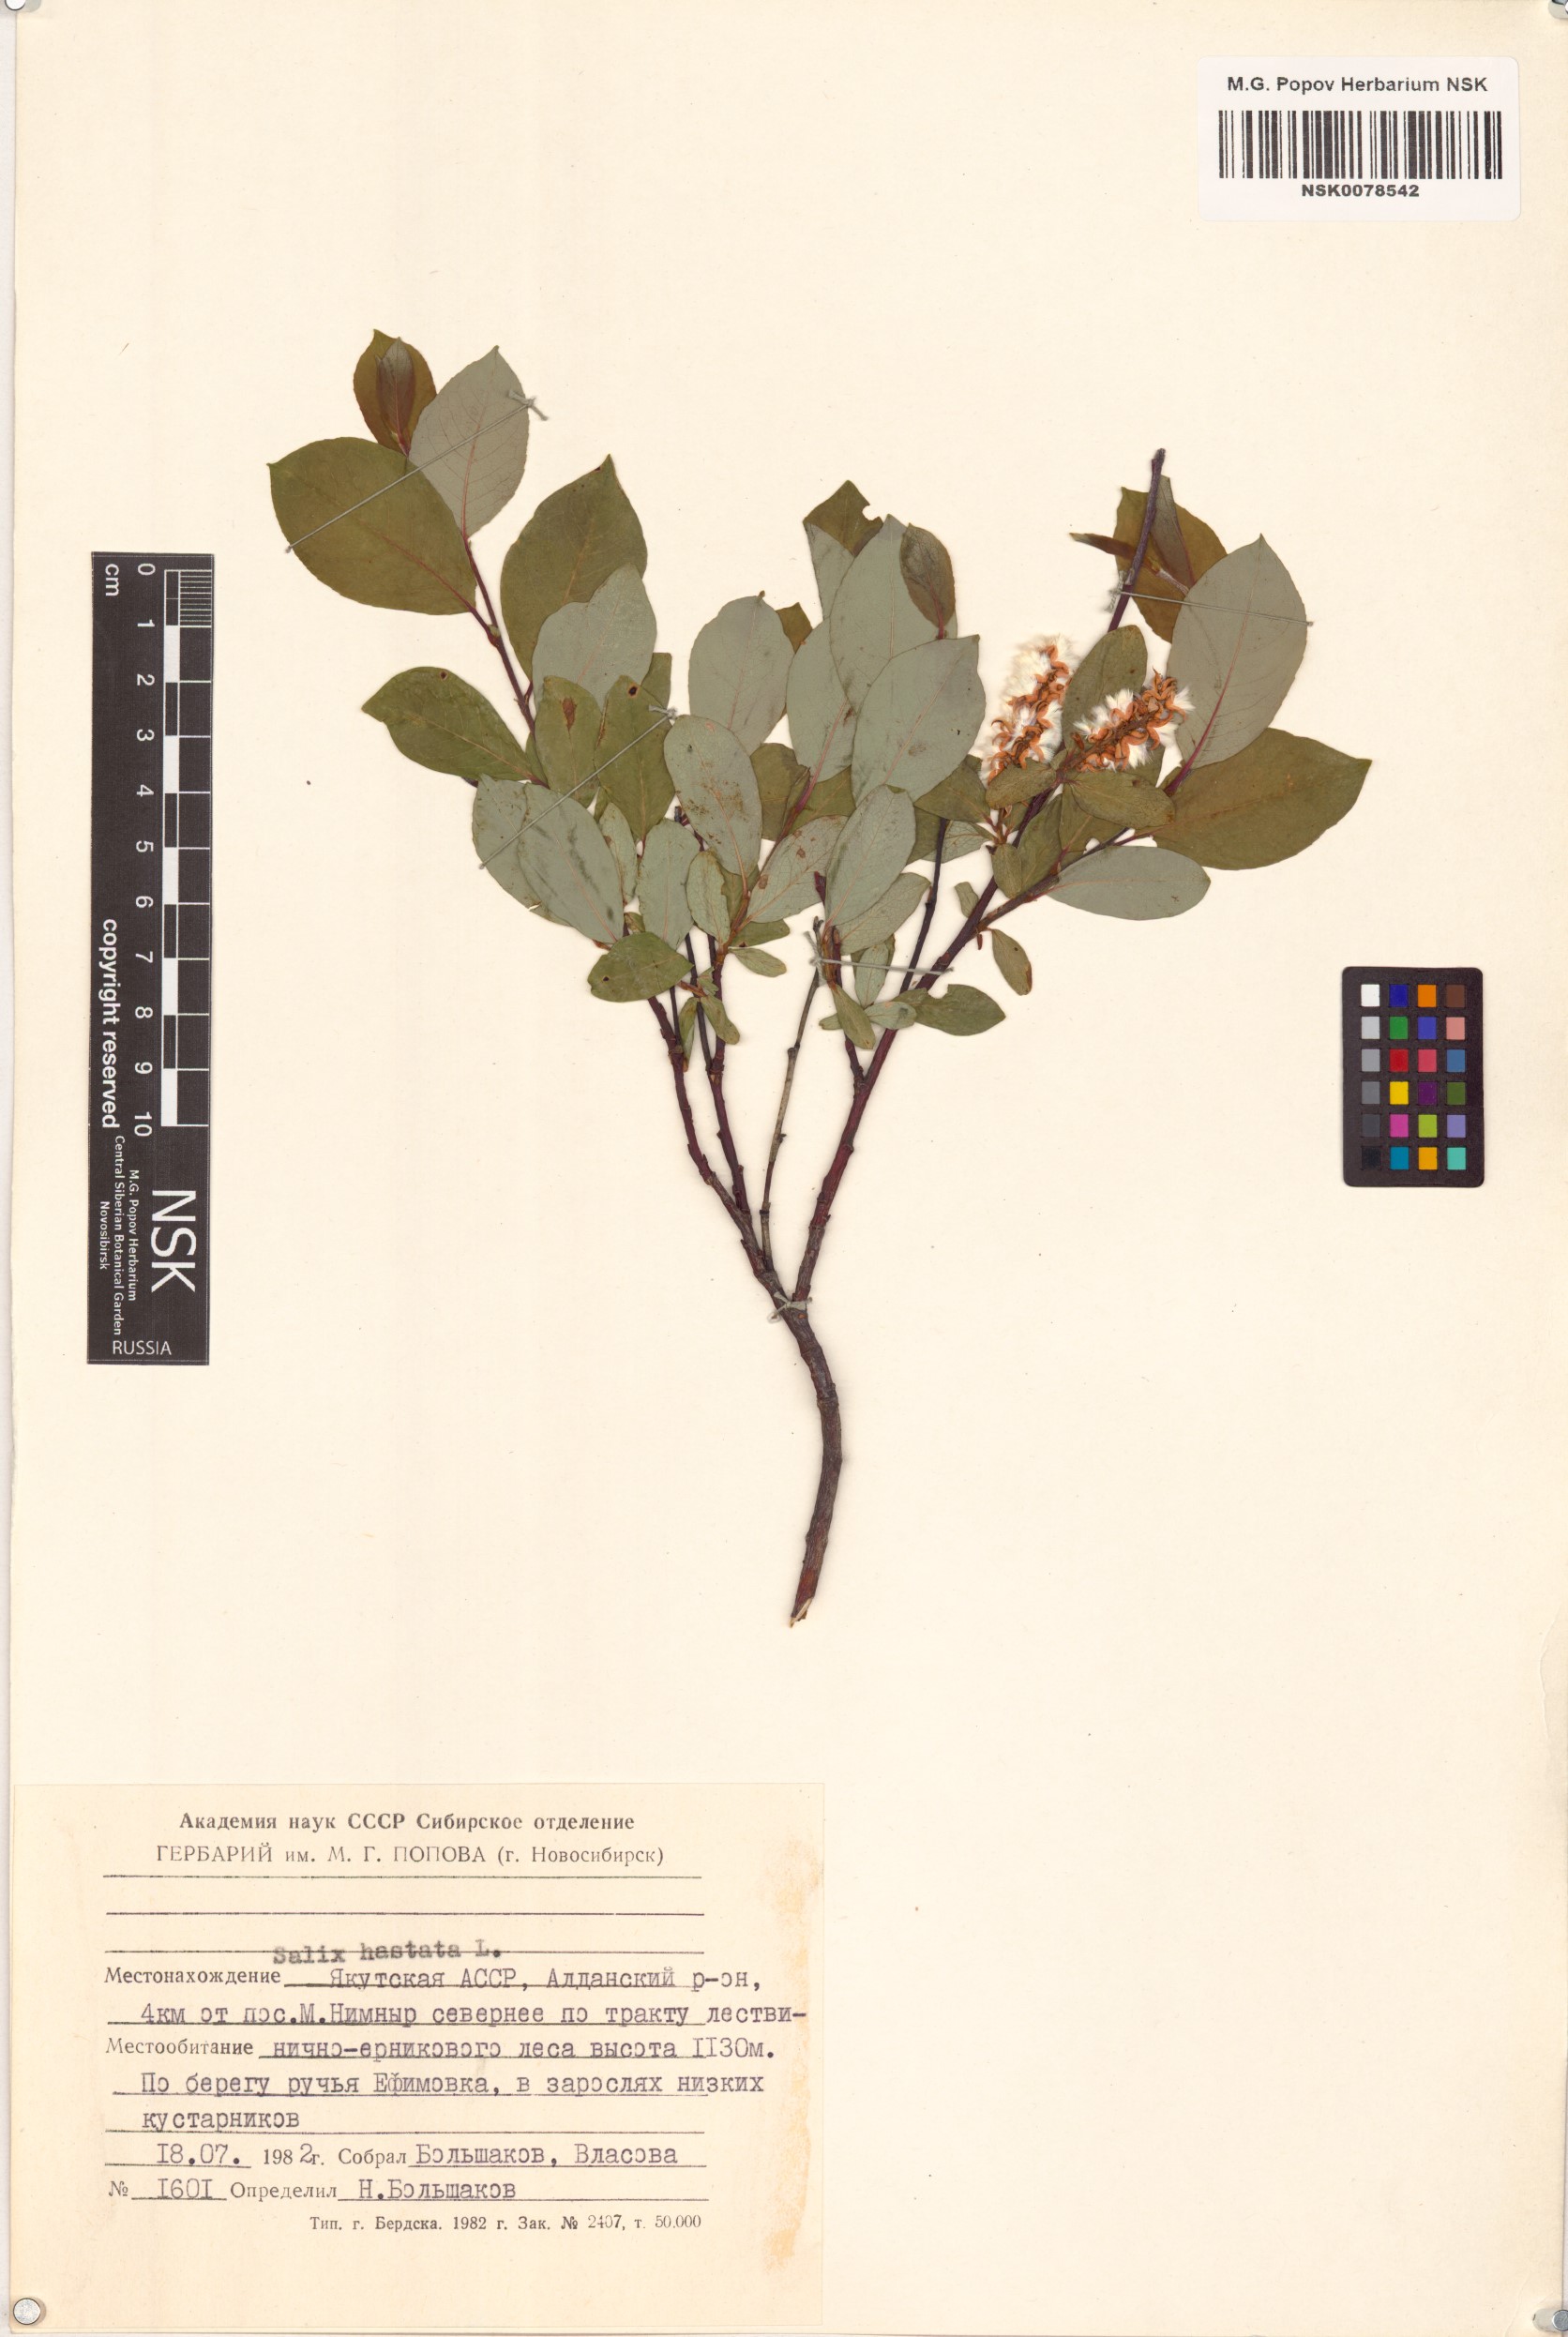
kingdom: Plantae
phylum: Tracheophyta
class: Magnoliopsida
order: Malpighiales
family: Salicaceae
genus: Salix
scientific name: Salix hastata
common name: Halberd willow
